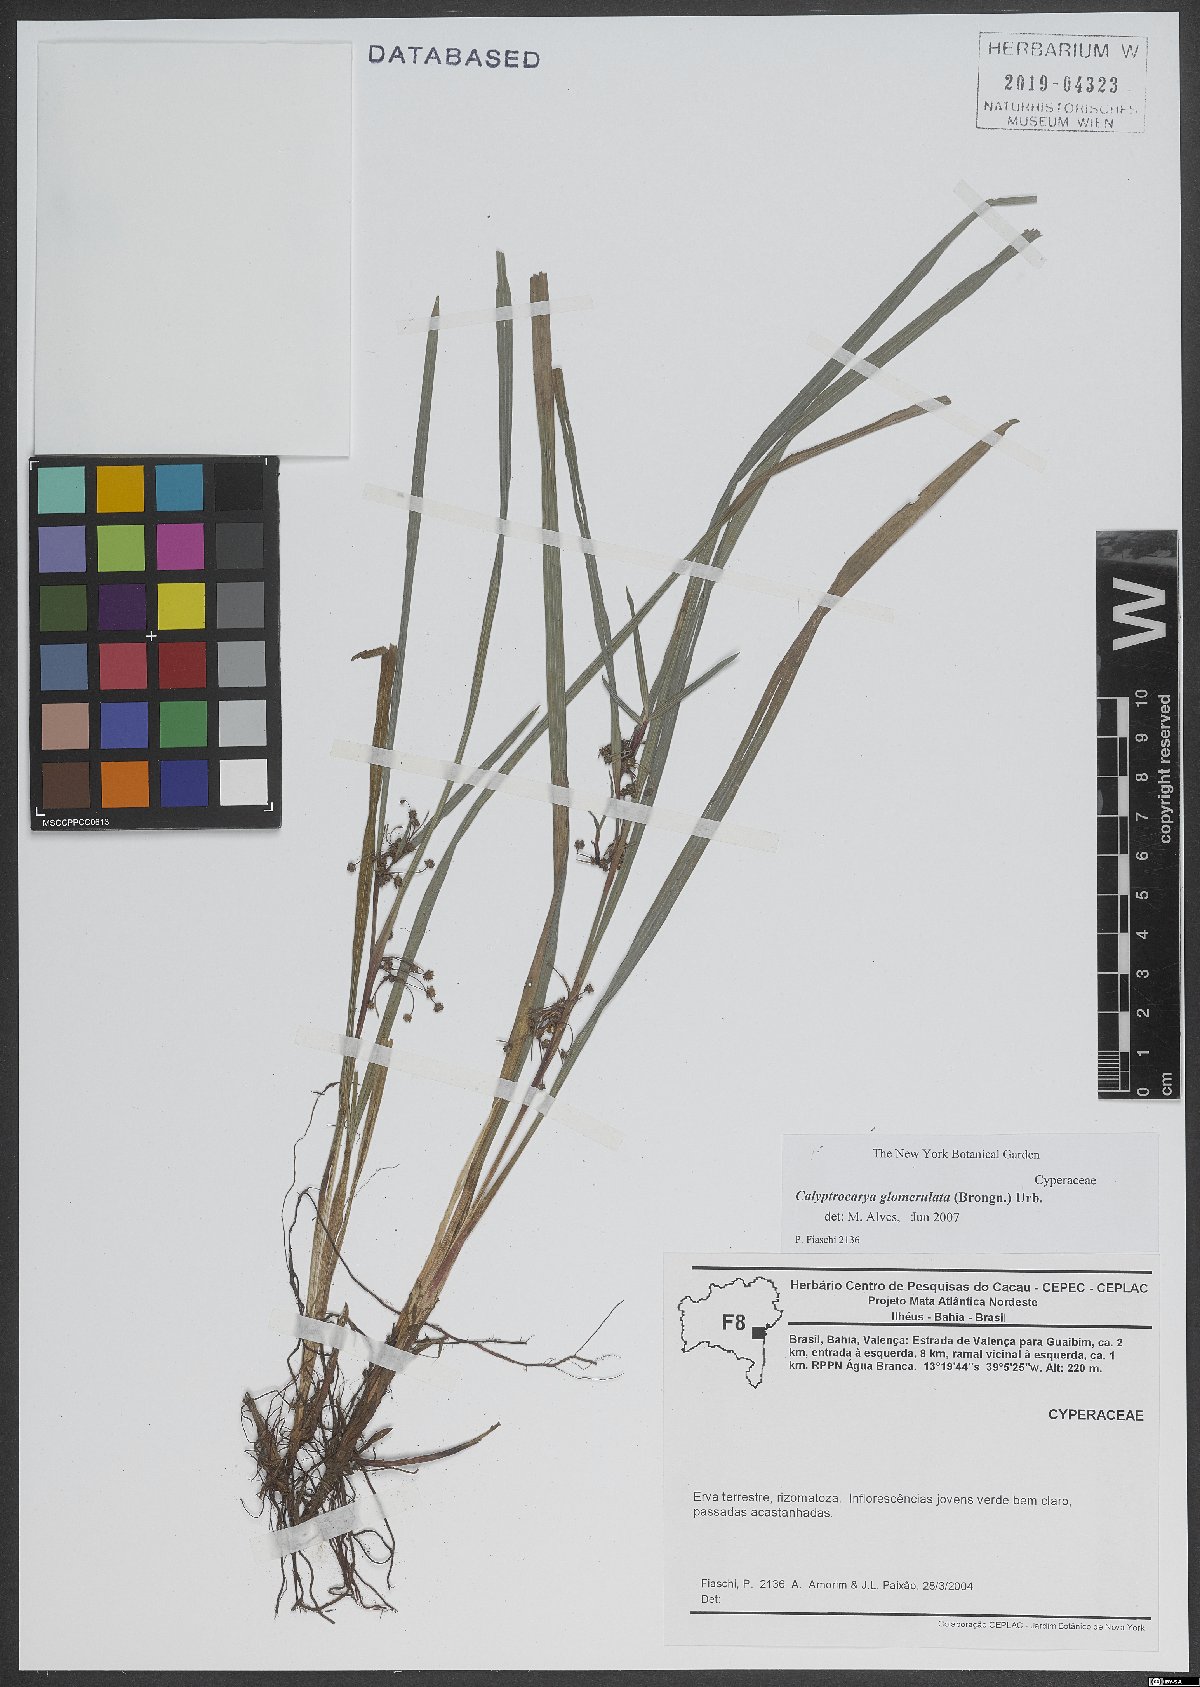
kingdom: Plantae
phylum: Tracheophyta
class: Liliopsida
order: Poales
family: Cyperaceae
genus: Calyptrocarya
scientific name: Calyptrocarya glomerulata
